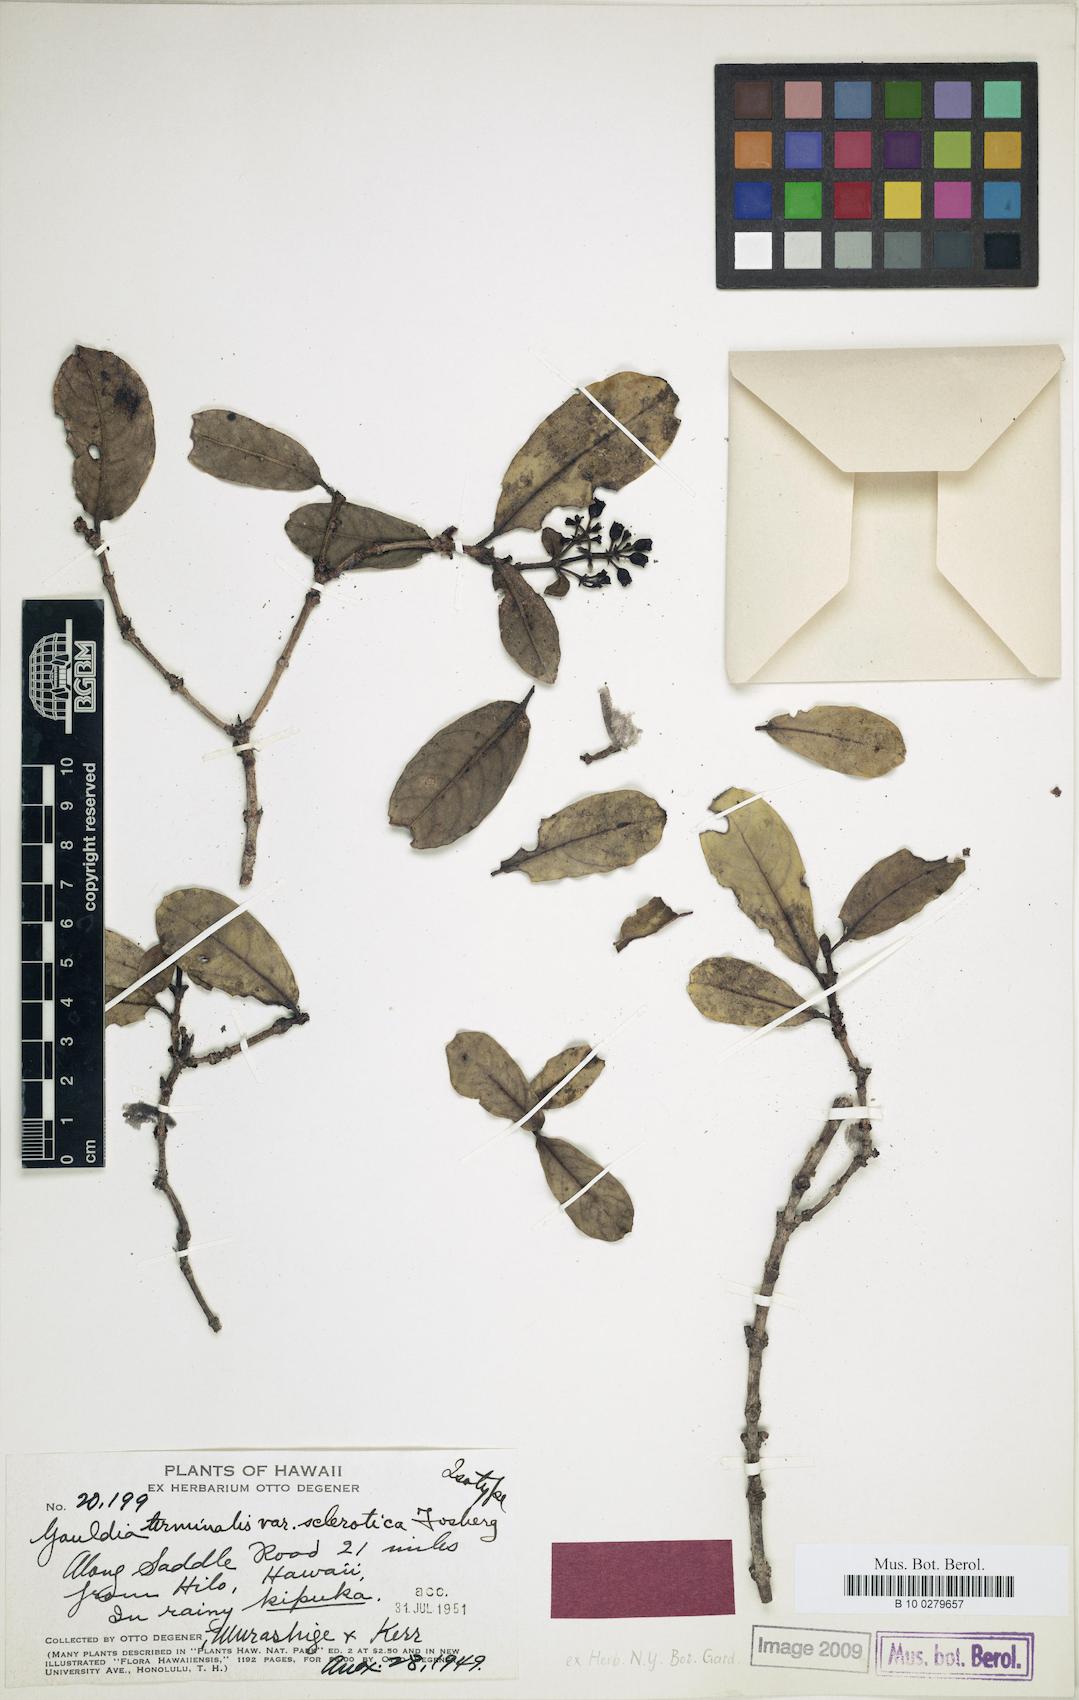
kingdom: Plantae
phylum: Tracheophyta
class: Magnoliopsida
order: Gentianales
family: Rubiaceae
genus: Kadua
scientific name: Kadua affinis
